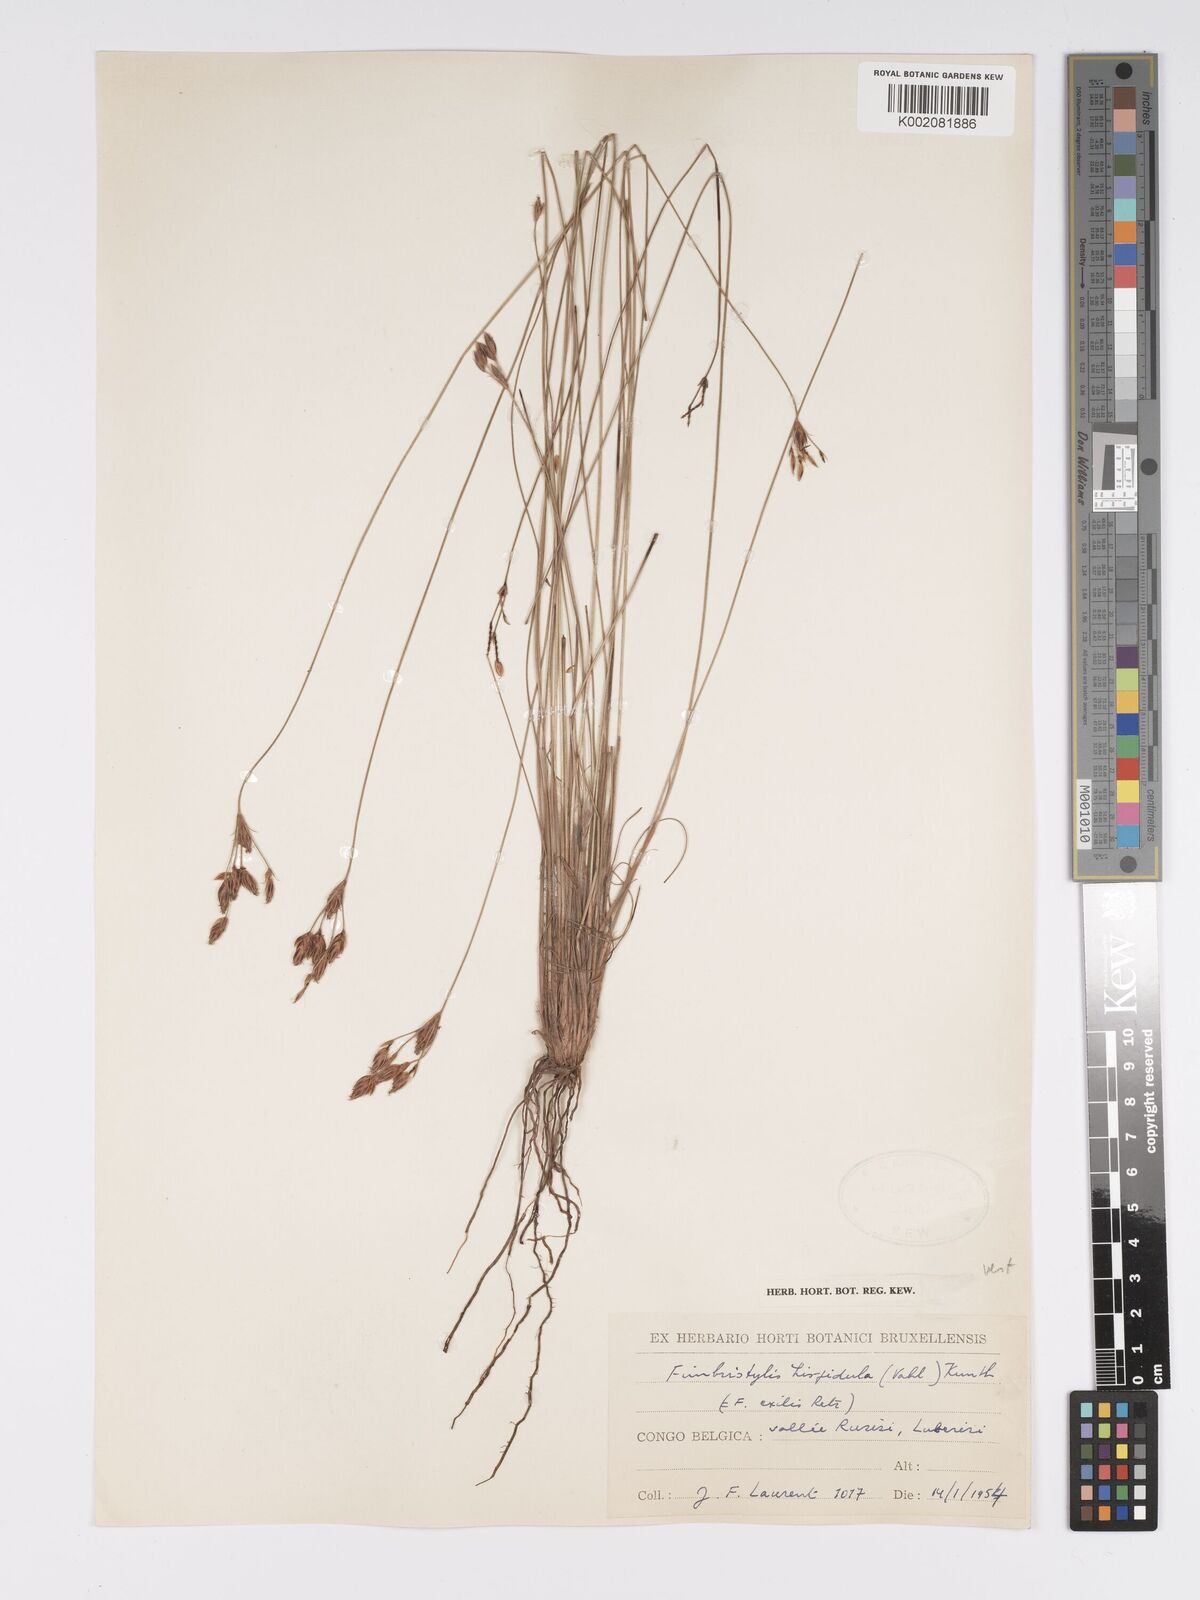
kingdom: Plantae
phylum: Tracheophyta
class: Liliopsida
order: Poales
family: Cyperaceae
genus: Bulbostylis
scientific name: Bulbostylis hispidula
